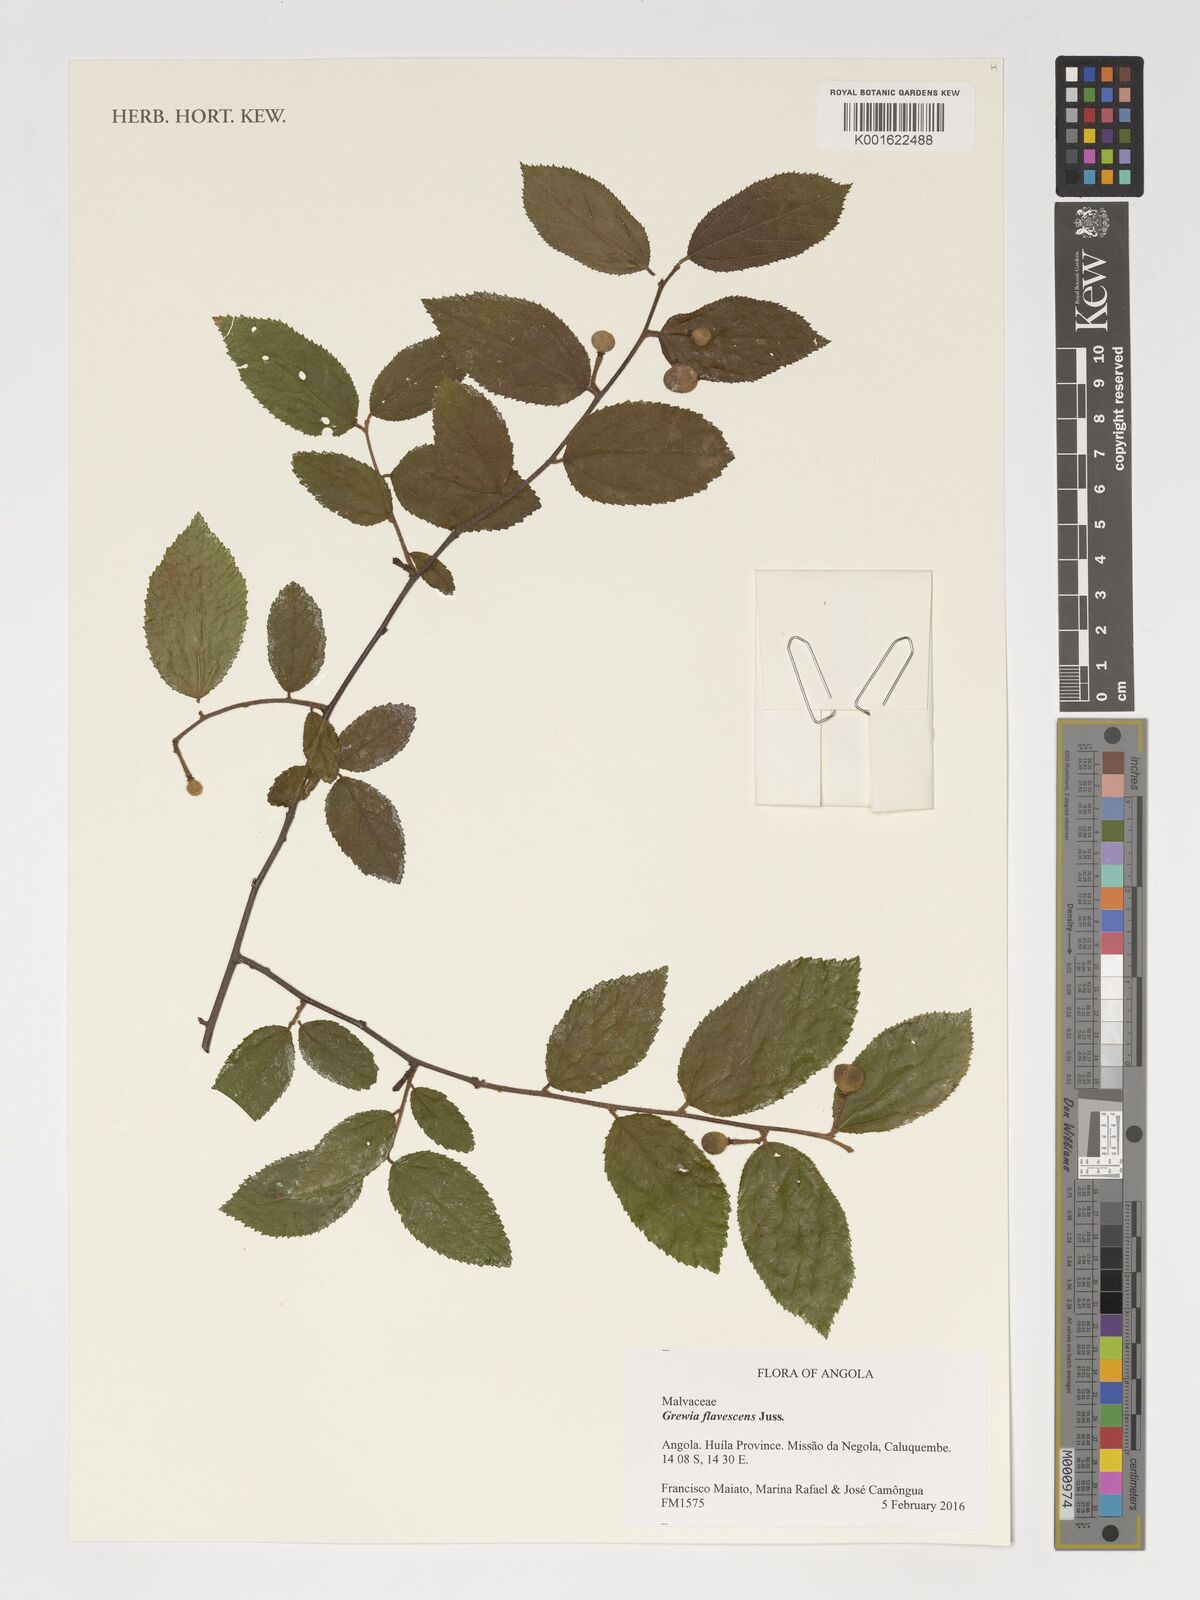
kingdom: Plantae
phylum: Tracheophyta
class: Magnoliopsida
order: Malvales
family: Malvaceae
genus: Grewia
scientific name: Grewia flavescens
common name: Sandpaper raisin
